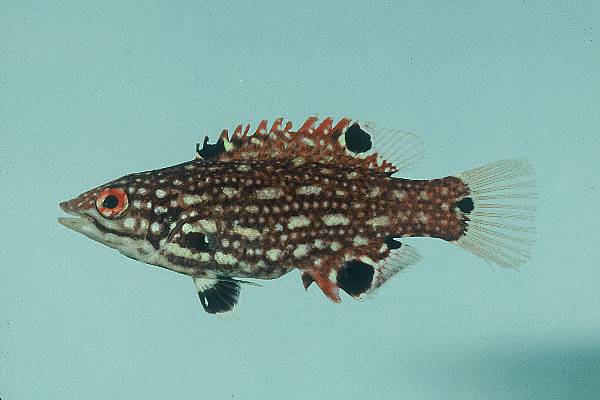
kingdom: Animalia
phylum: Chordata
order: Perciformes
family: Labridae
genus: Bodianus
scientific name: Bodianus diana
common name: Diana's hogfish
